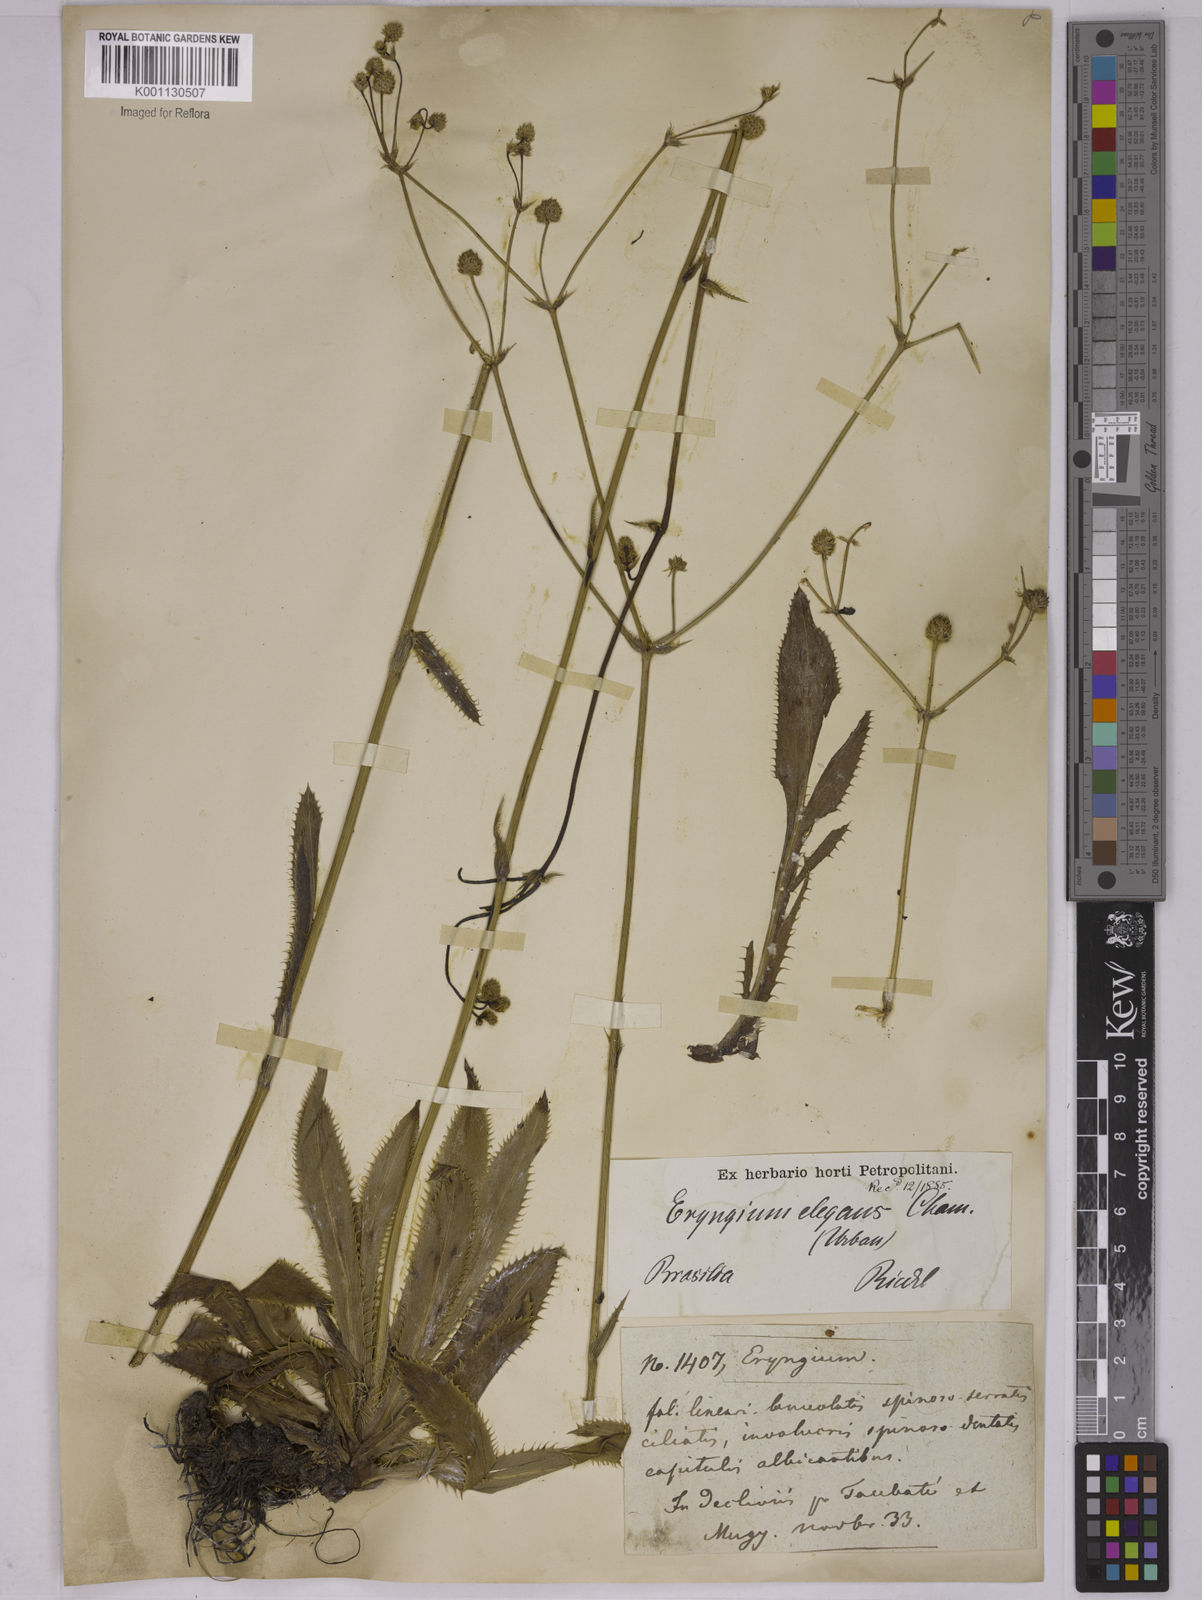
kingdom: Plantae
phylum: Tracheophyta
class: Magnoliopsida
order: Apiales
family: Apiaceae
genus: Eryngium
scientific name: Eryngium elegans
